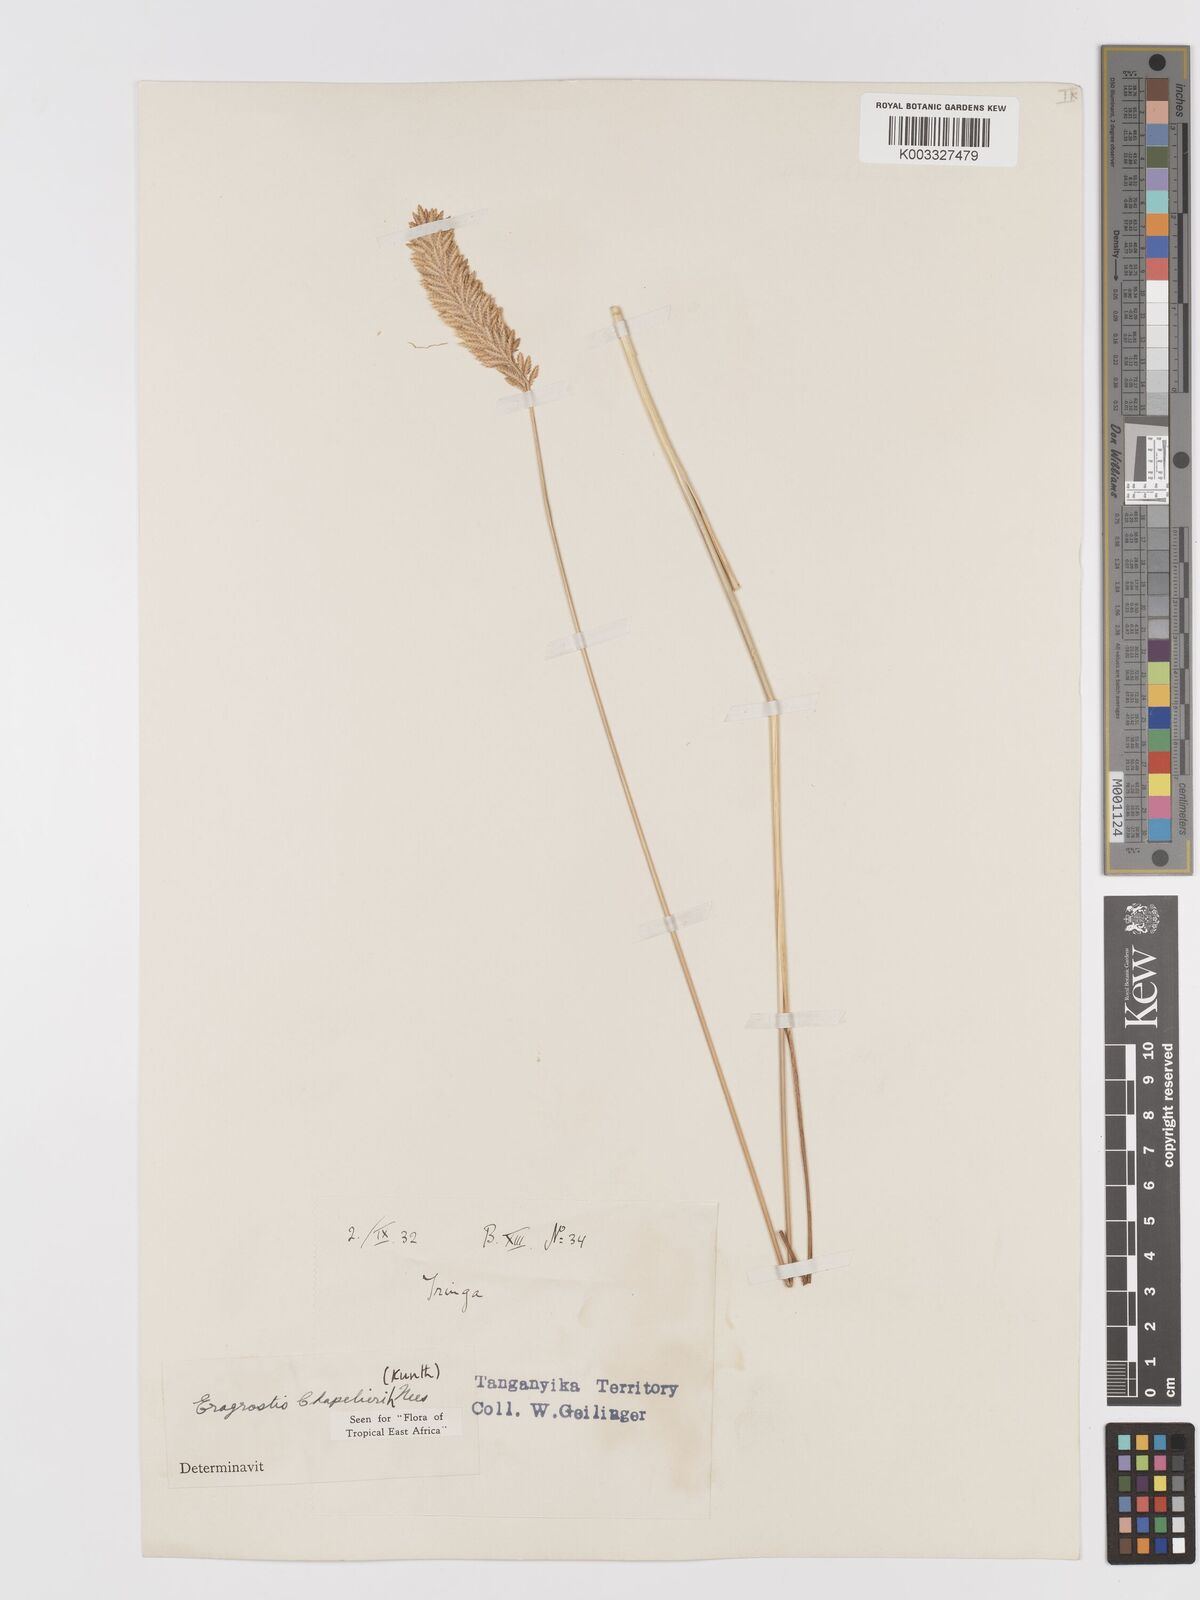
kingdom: Plantae
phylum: Tracheophyta
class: Liliopsida
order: Poales
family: Poaceae
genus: Eragrostis
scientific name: Eragrostis chapelieri
